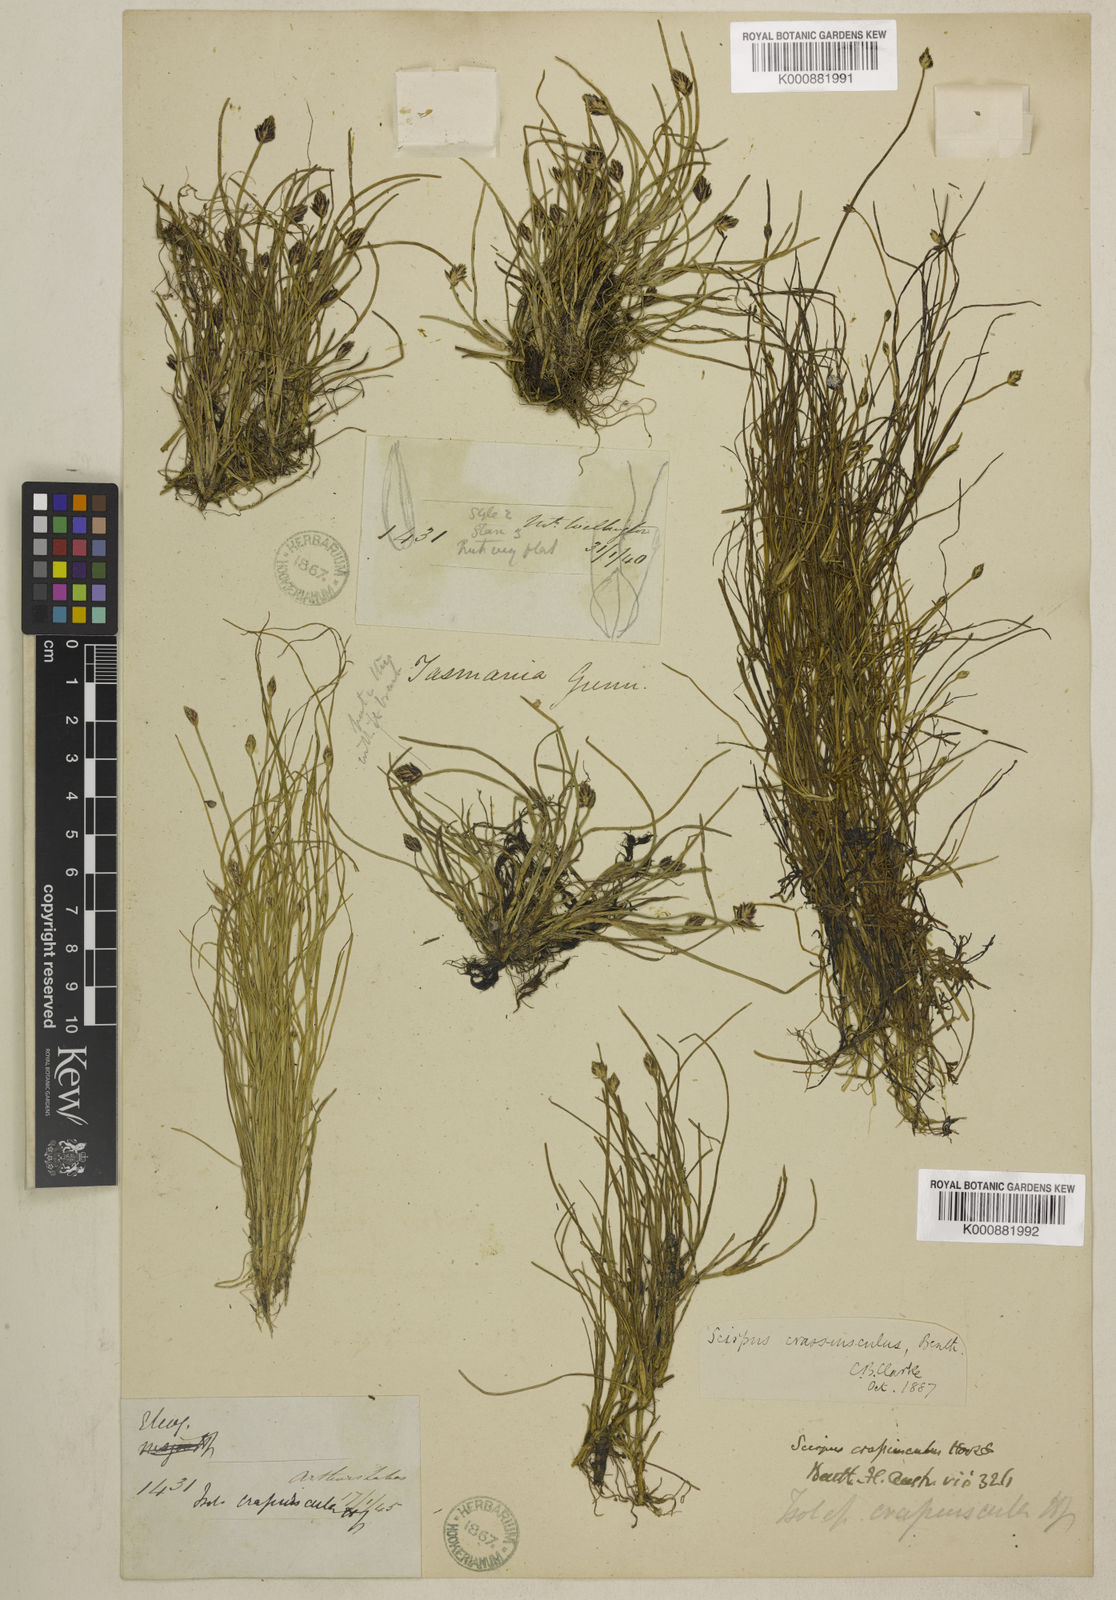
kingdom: Plantae
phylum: Tracheophyta
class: Liliopsida
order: Poales
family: Cyperaceae
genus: Isolepis
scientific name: Isolepis crassiuscula
